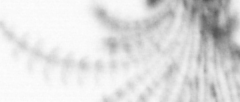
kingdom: Animalia
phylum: Arthropoda
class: Maxillopoda
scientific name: Maxillopoda
